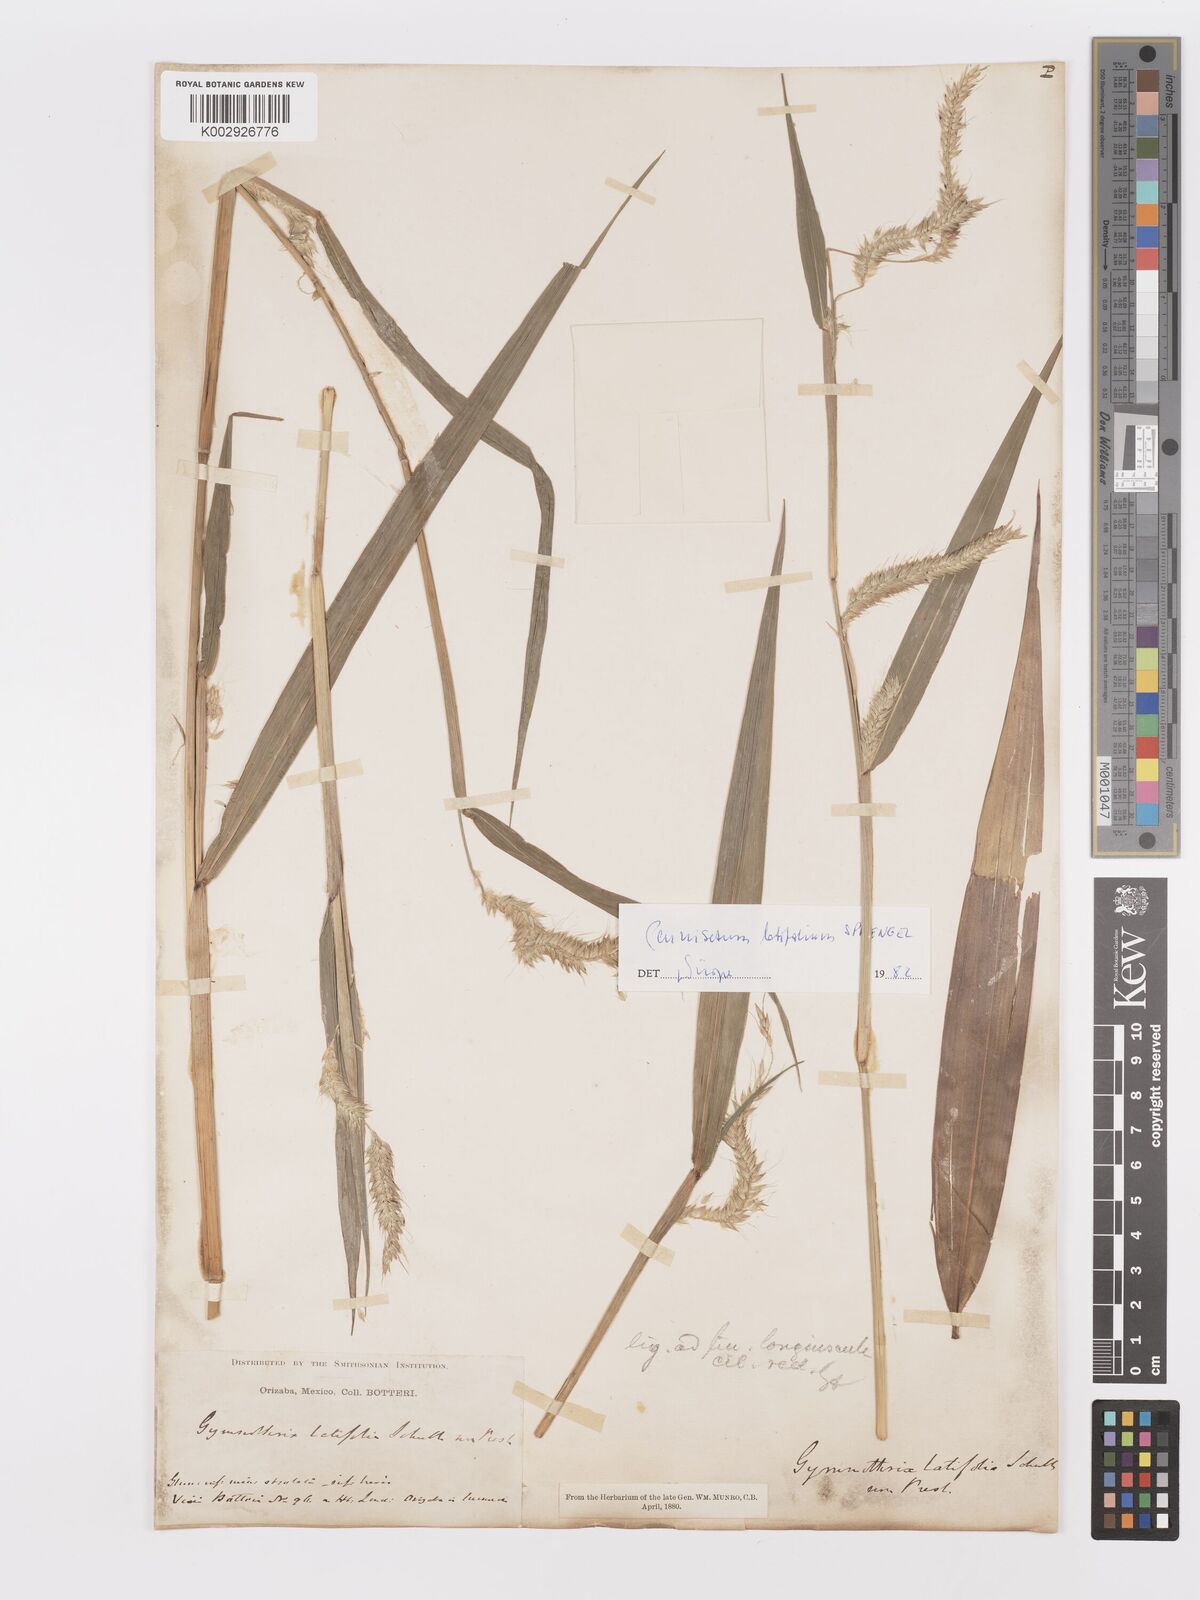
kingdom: Plantae
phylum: Tracheophyta
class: Liliopsida
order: Poales
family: Poaceae
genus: Cenchrus
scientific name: Cenchrus latifolius
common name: Sandbur
